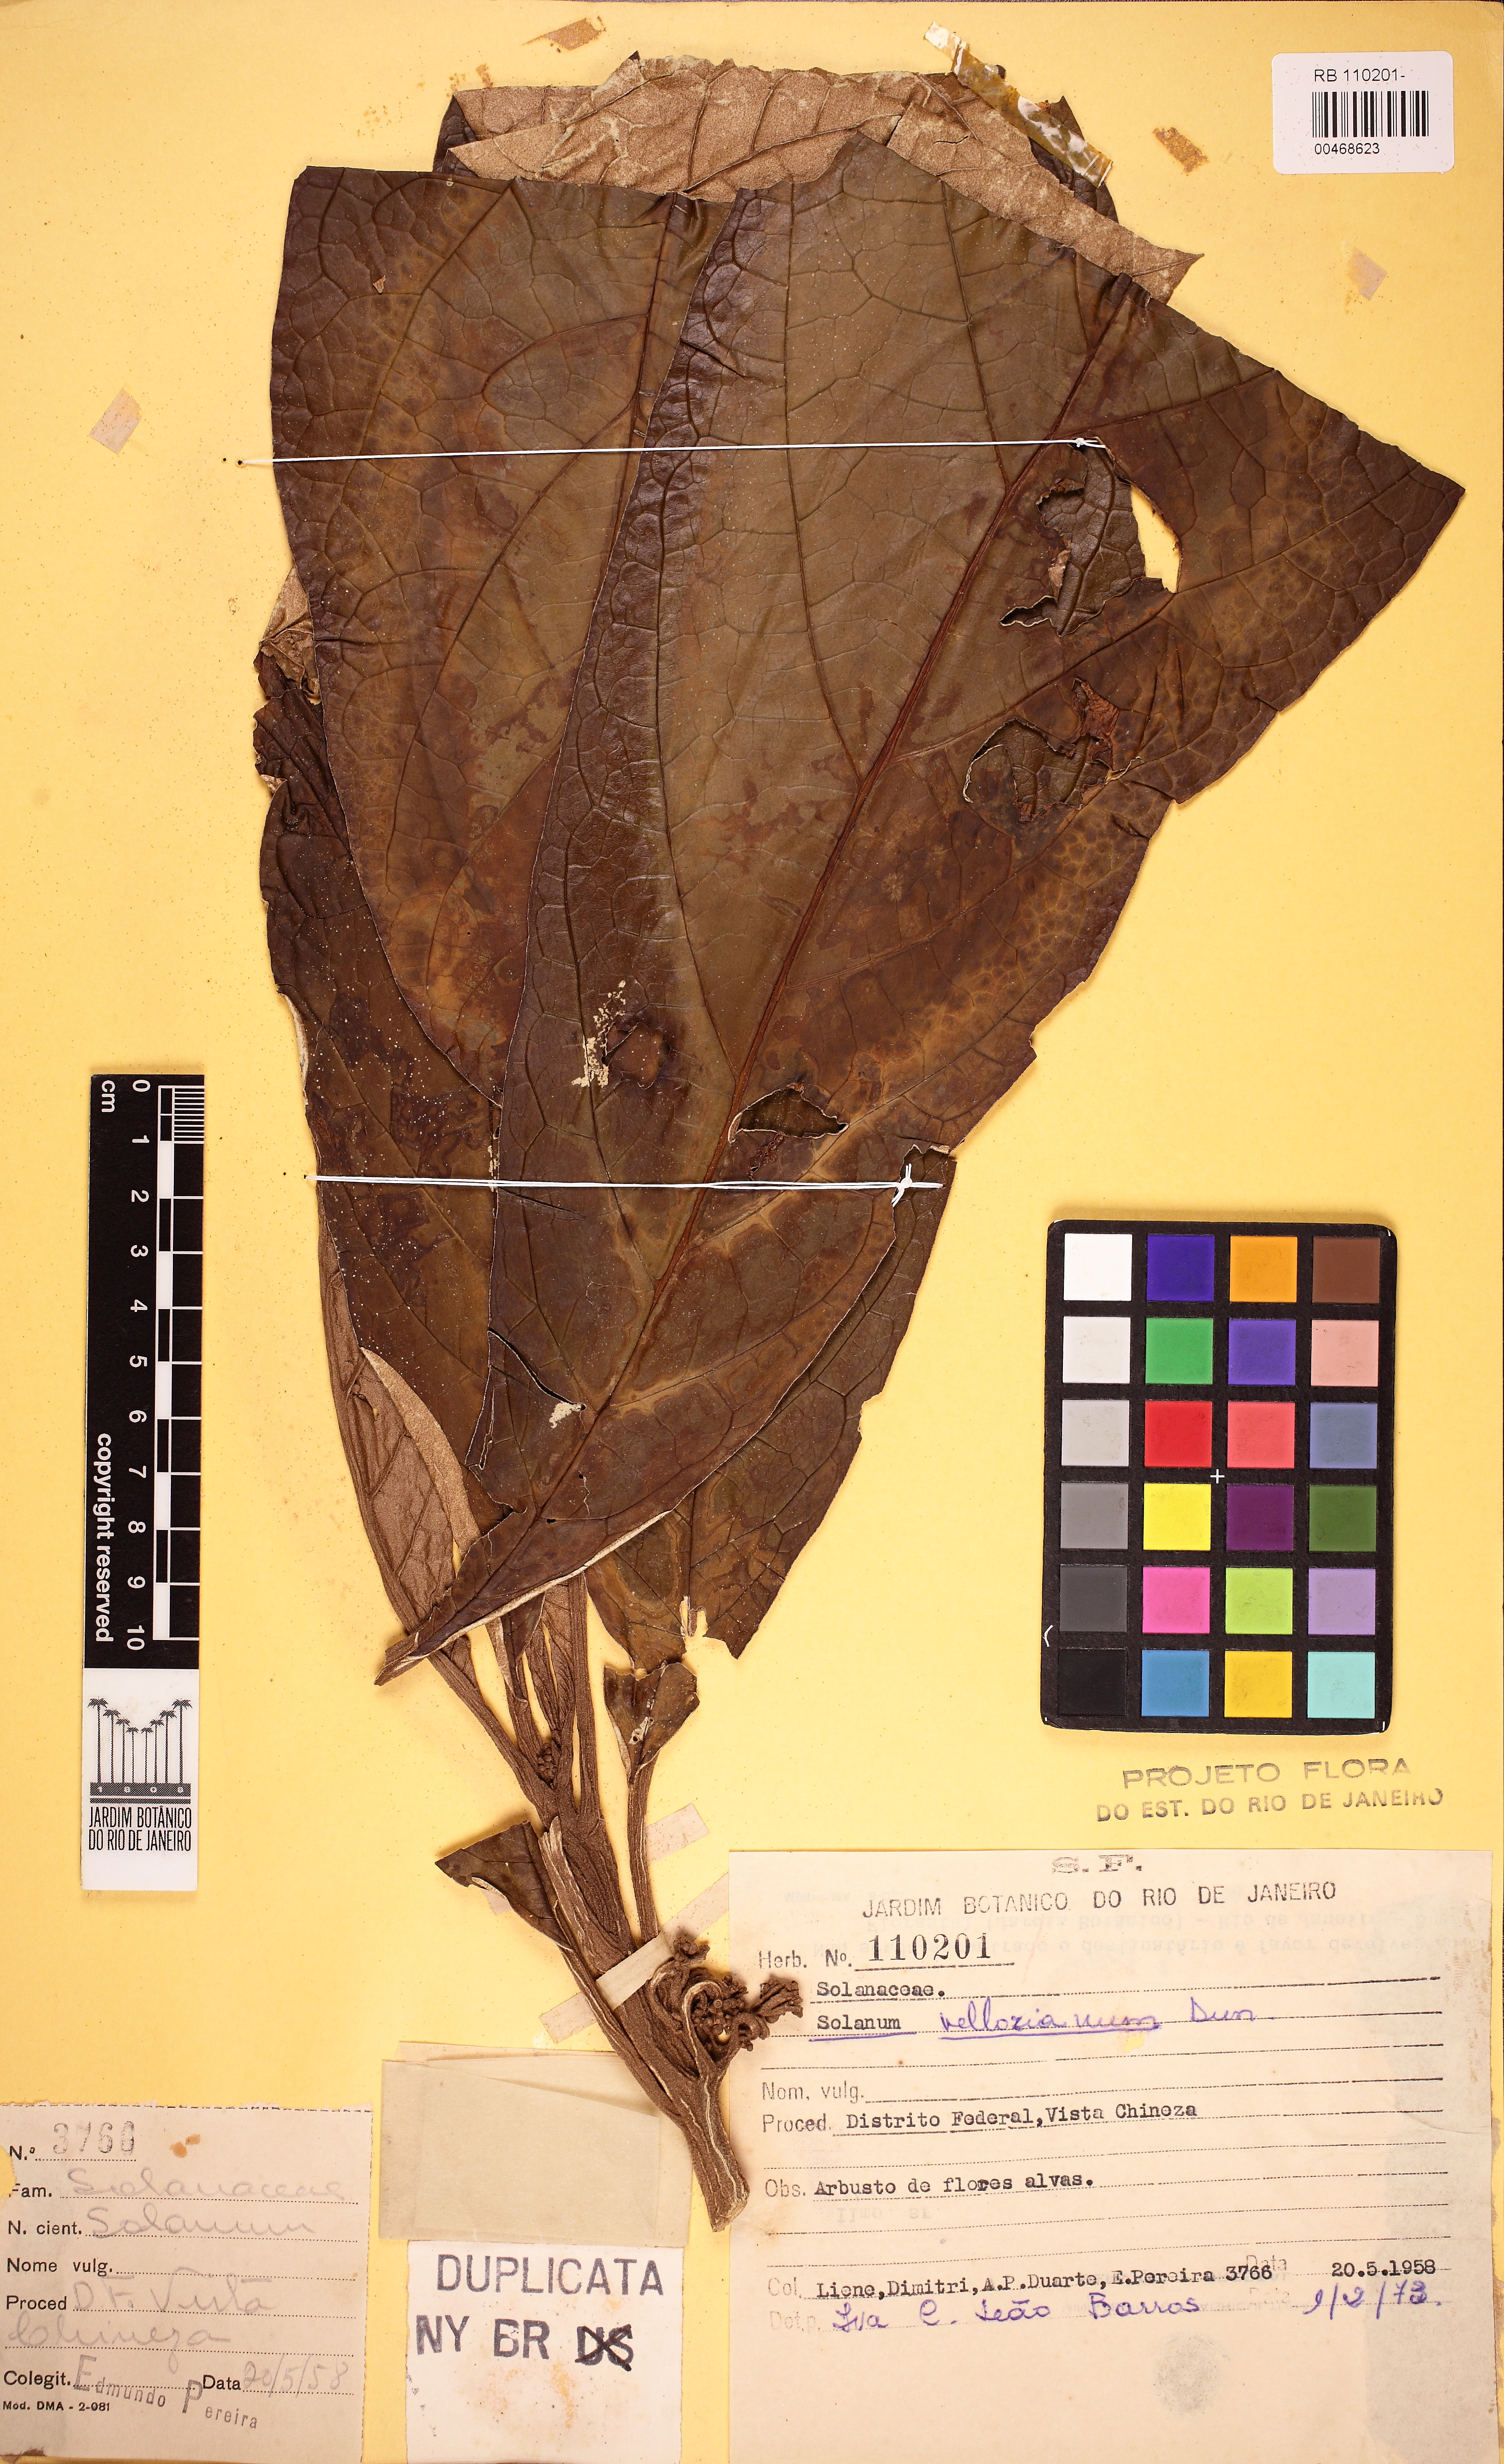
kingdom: Plantae
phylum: Tracheophyta
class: Magnoliopsida
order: Solanales
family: Solanaceae
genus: Solanum
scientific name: Solanum vellozianum
